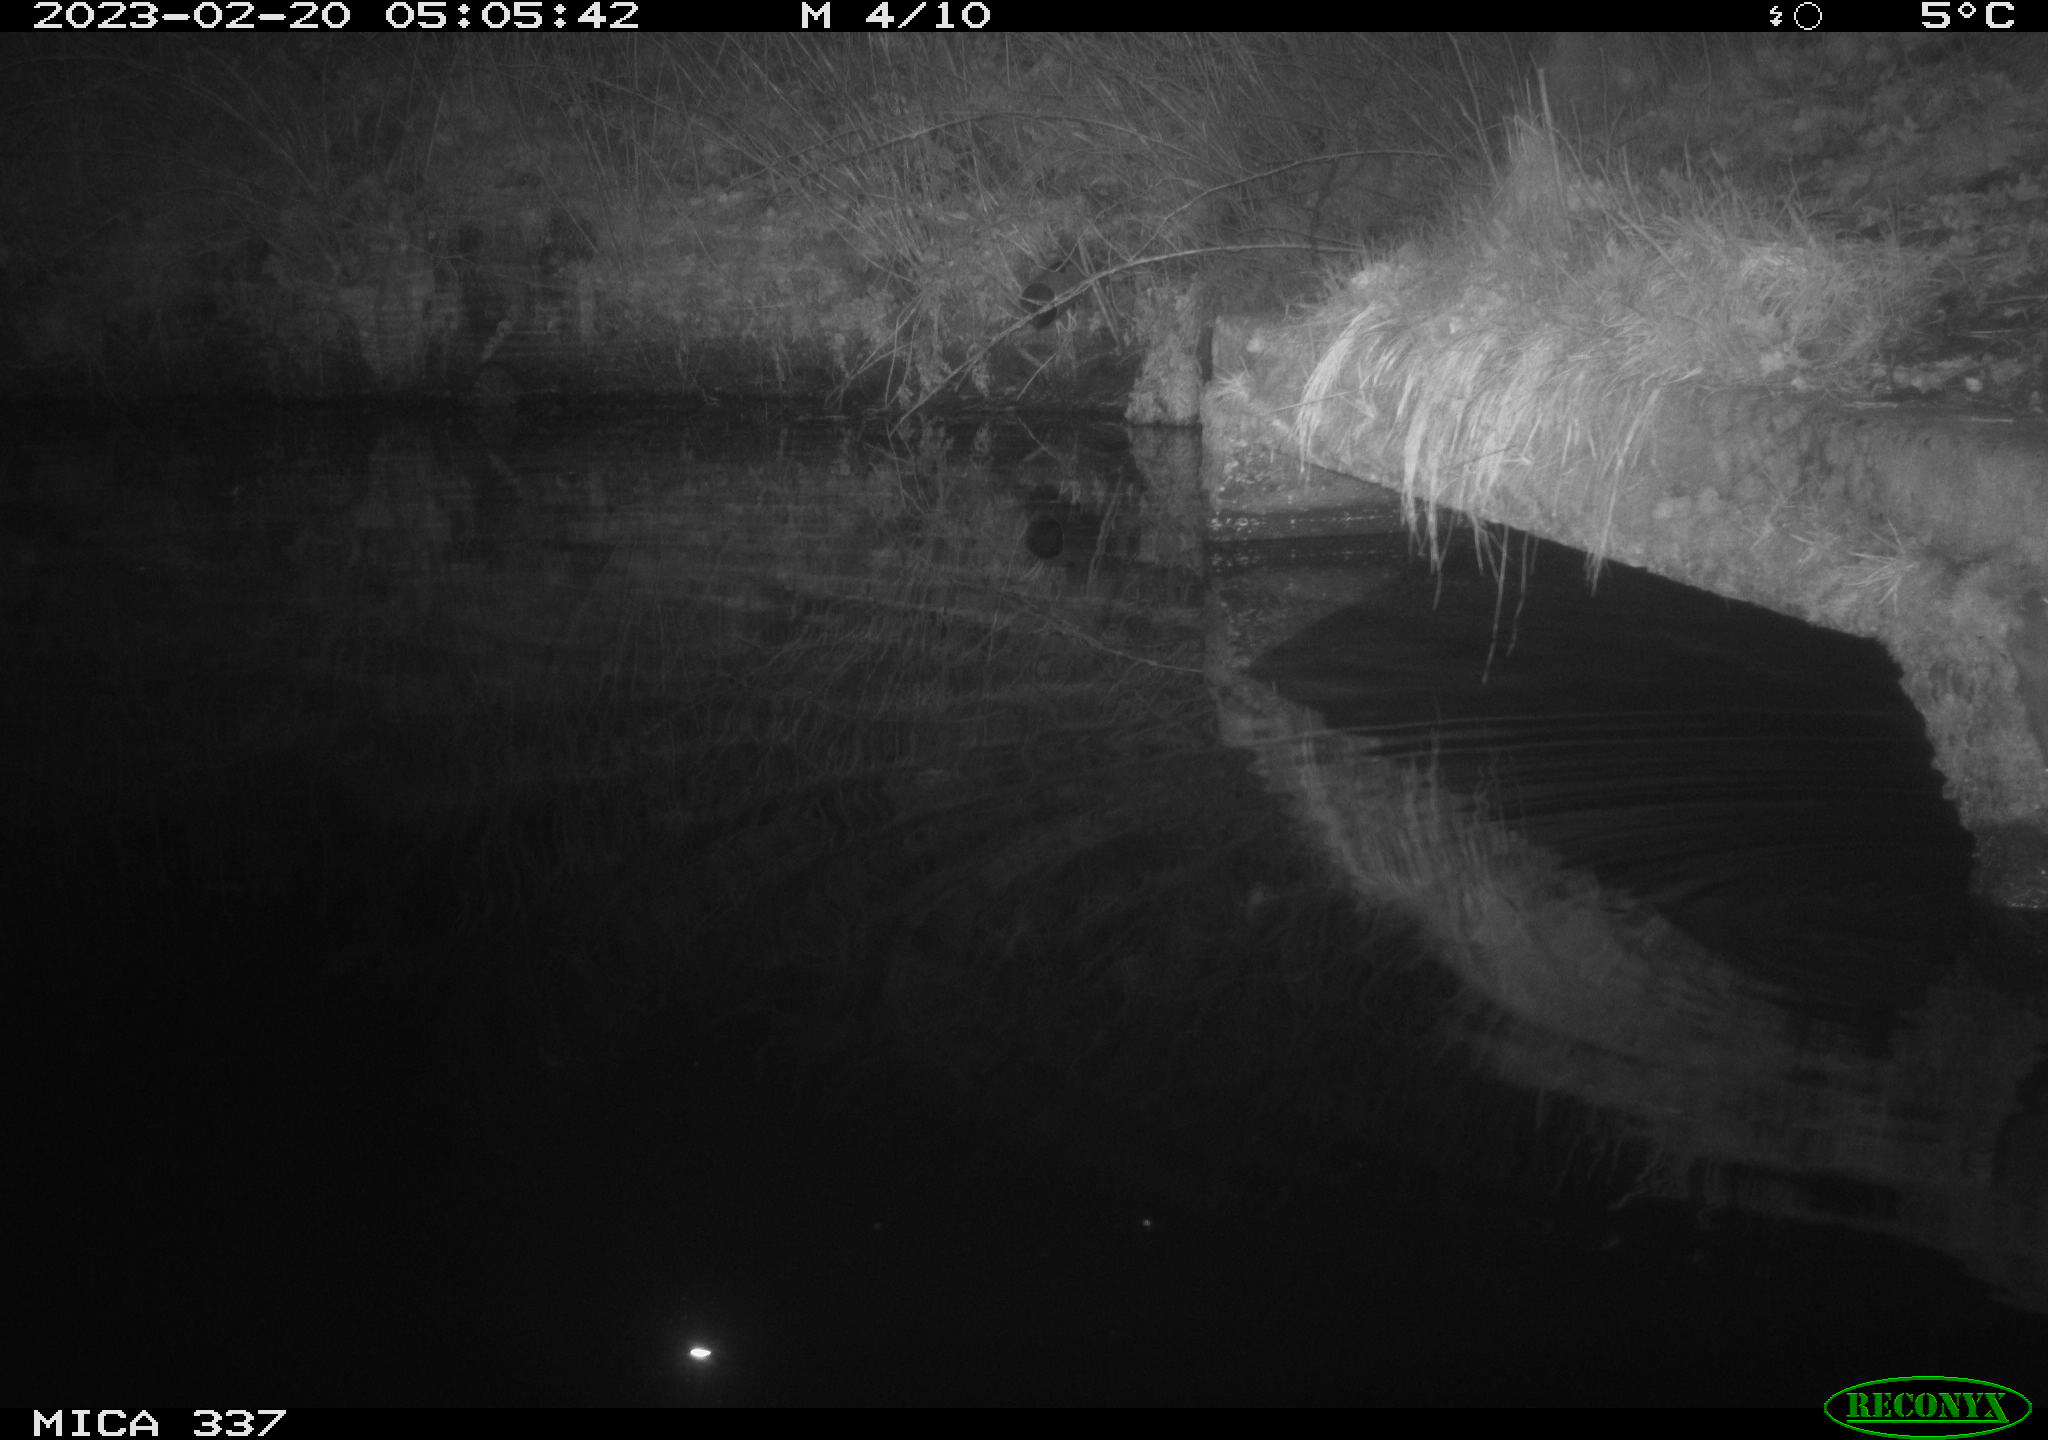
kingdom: Animalia
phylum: Chordata
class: Mammalia
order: Rodentia
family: Muridae
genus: Rattus
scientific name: Rattus norvegicus
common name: Brown rat
